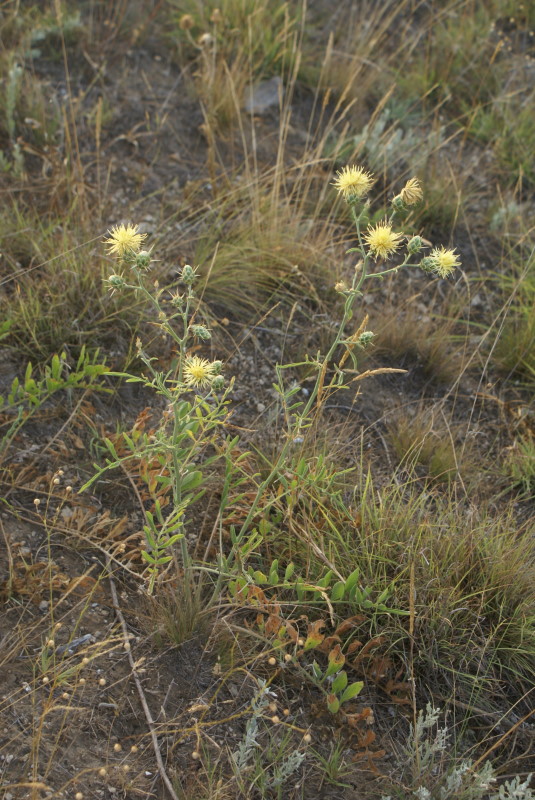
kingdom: Plantae
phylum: Tracheophyta
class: Magnoliopsida
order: Asterales
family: Asteraceae
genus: Centaurea
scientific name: Centaurea solstitialis
